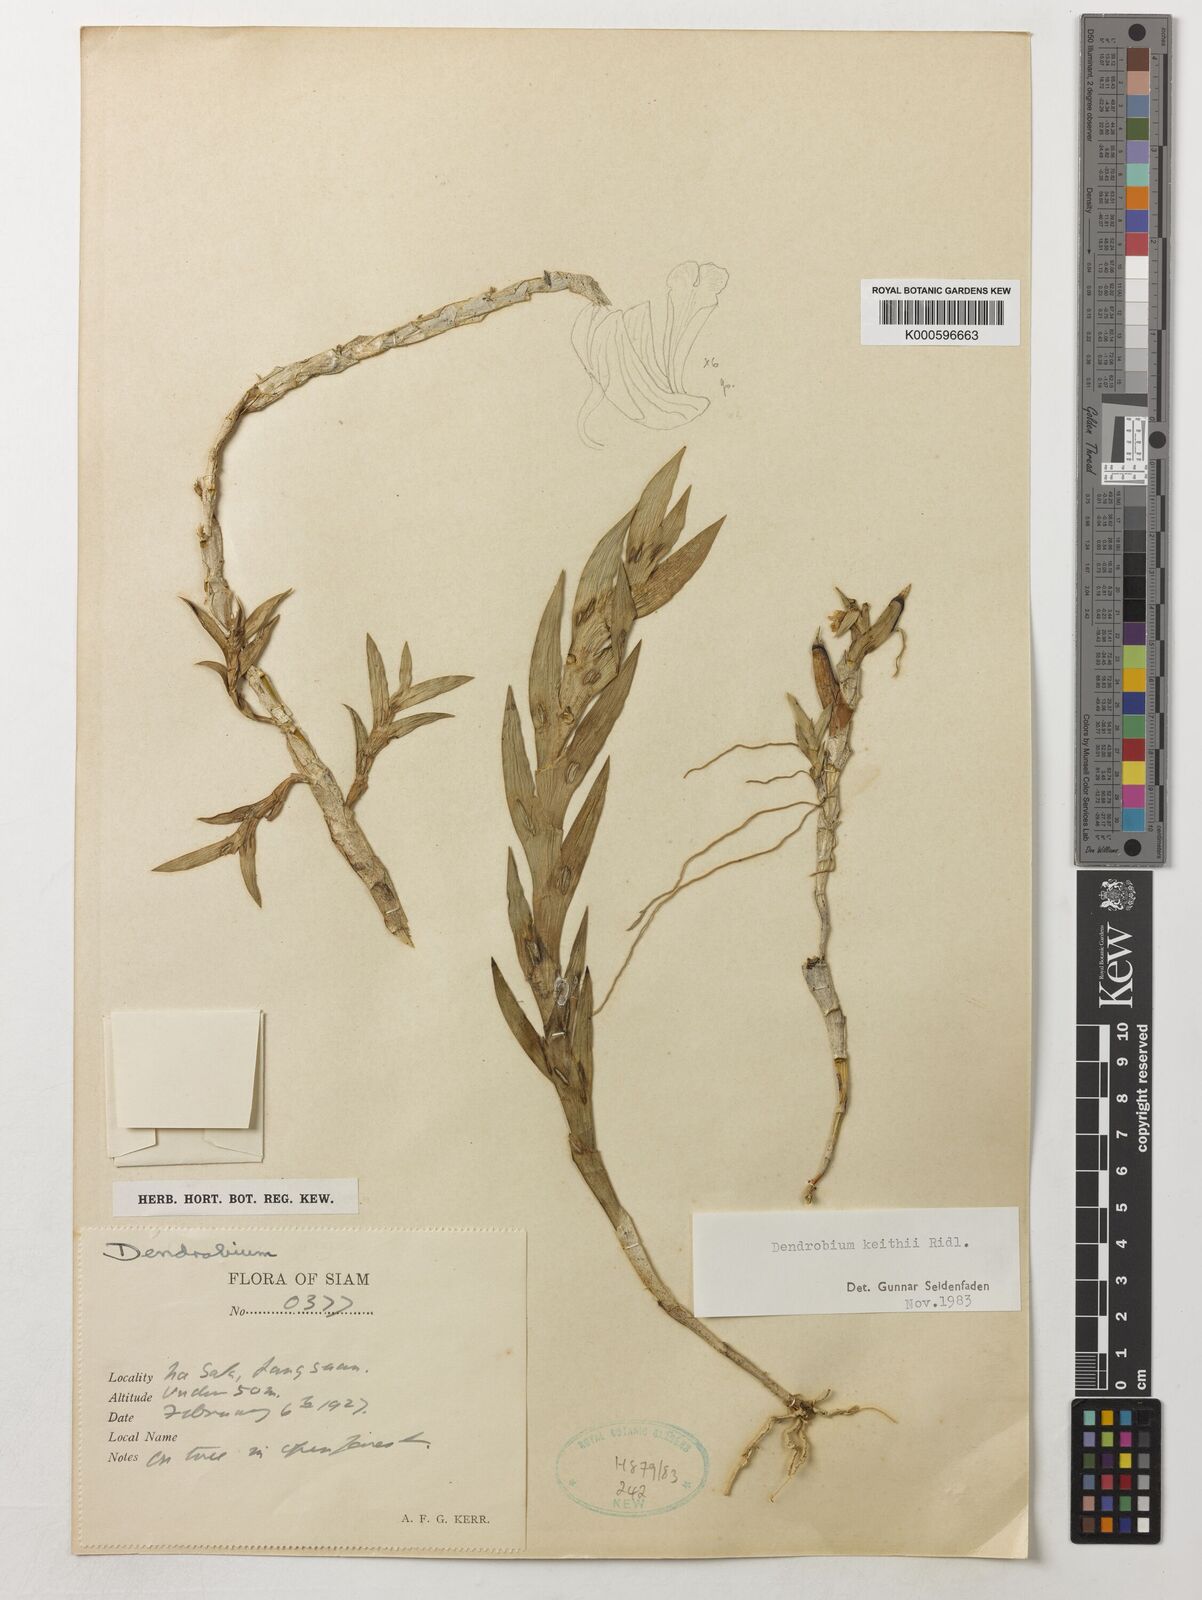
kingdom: Plantae
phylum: Tracheophyta
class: Liliopsida
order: Asparagales
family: Orchidaceae
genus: Dendrobium
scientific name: Dendrobium keithii
